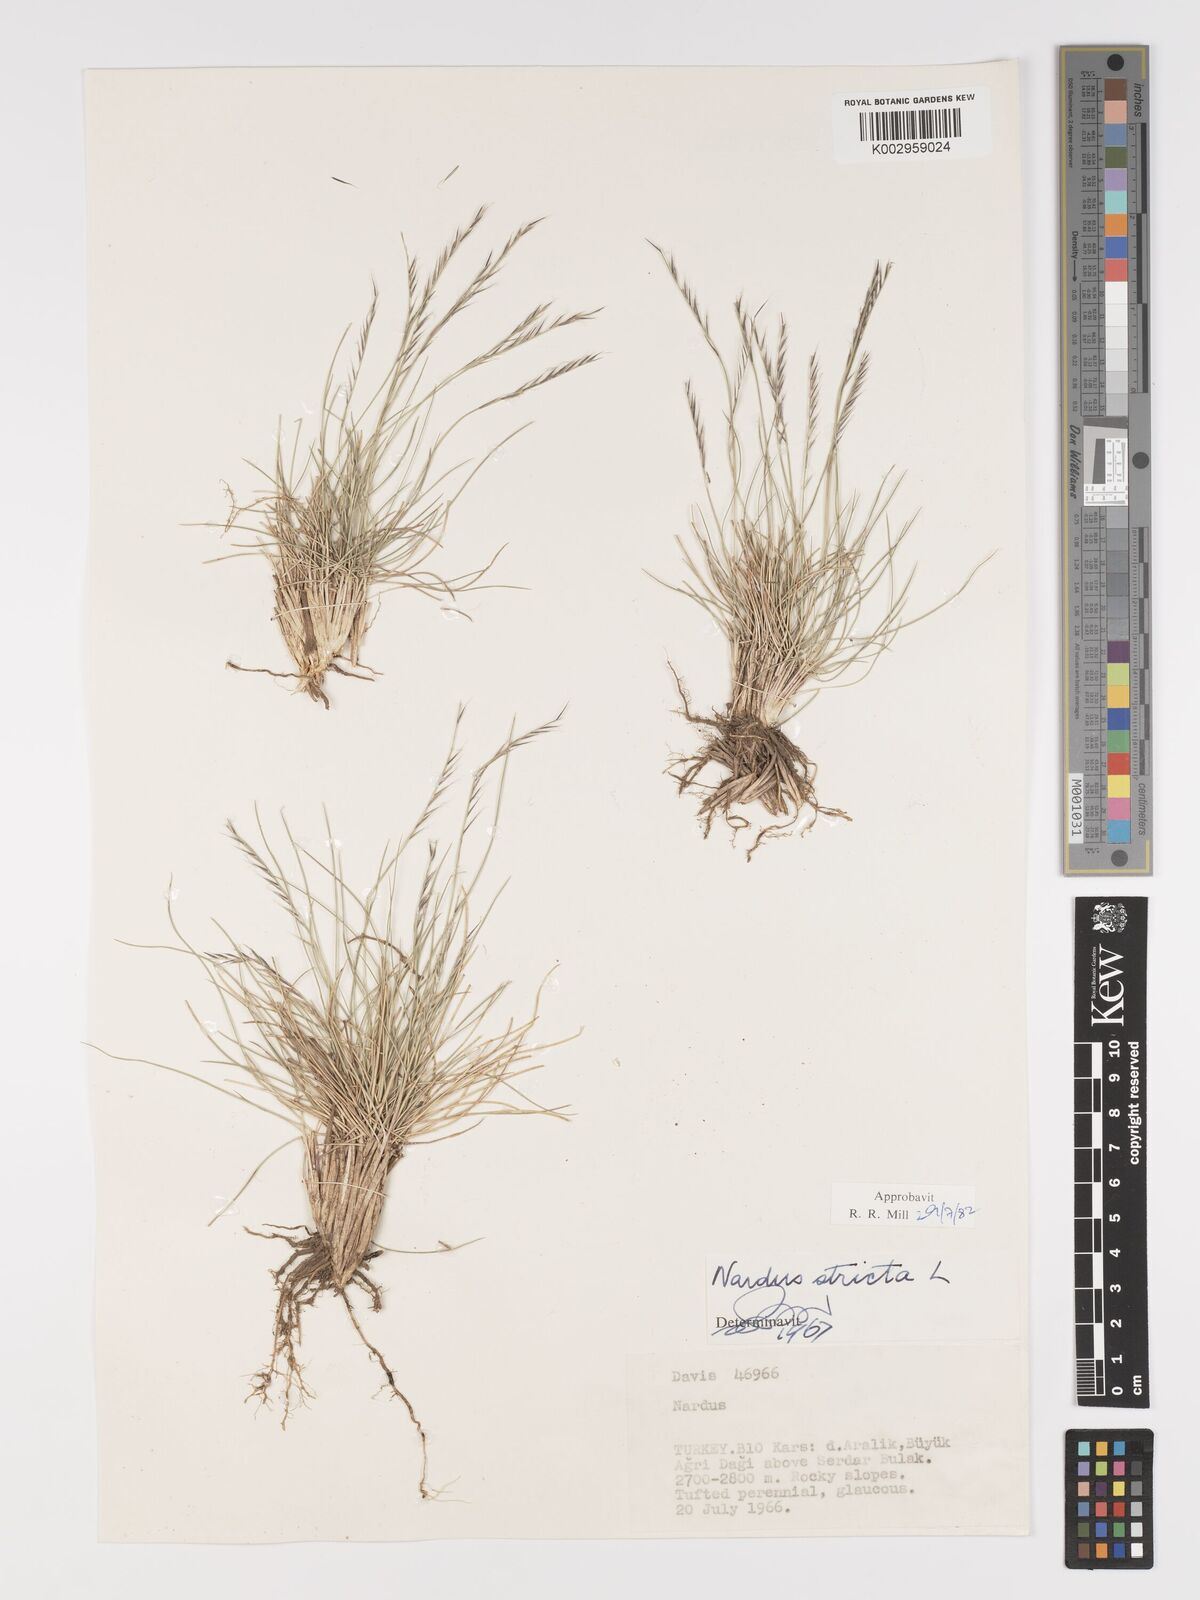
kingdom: Plantae
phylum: Tracheophyta
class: Liliopsida
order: Poales
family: Poaceae
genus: Nardus
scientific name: Nardus stricta
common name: Mat-grass
